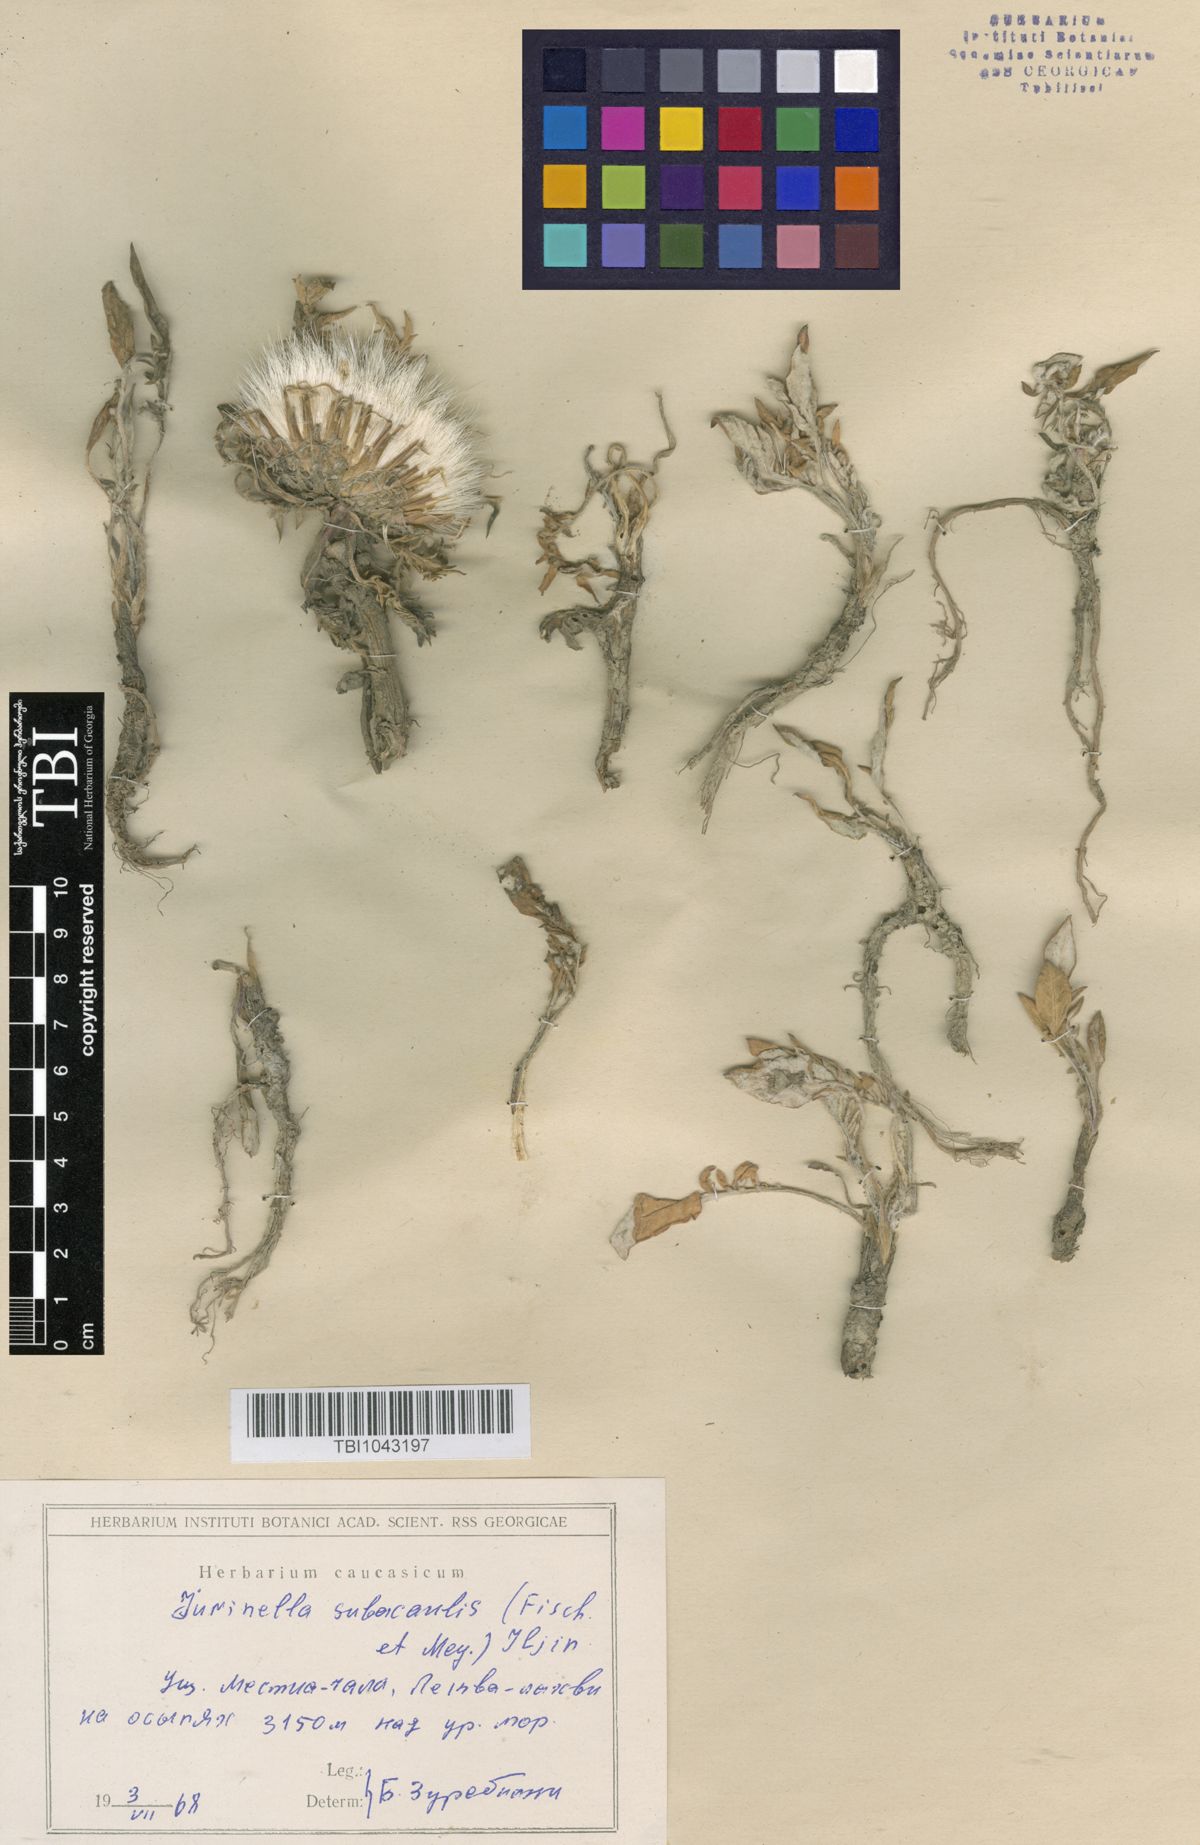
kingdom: Plantae
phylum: Tracheophyta
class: Magnoliopsida
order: Asterales
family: Asteraceae
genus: Jurinea
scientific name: Jurinea moschus
